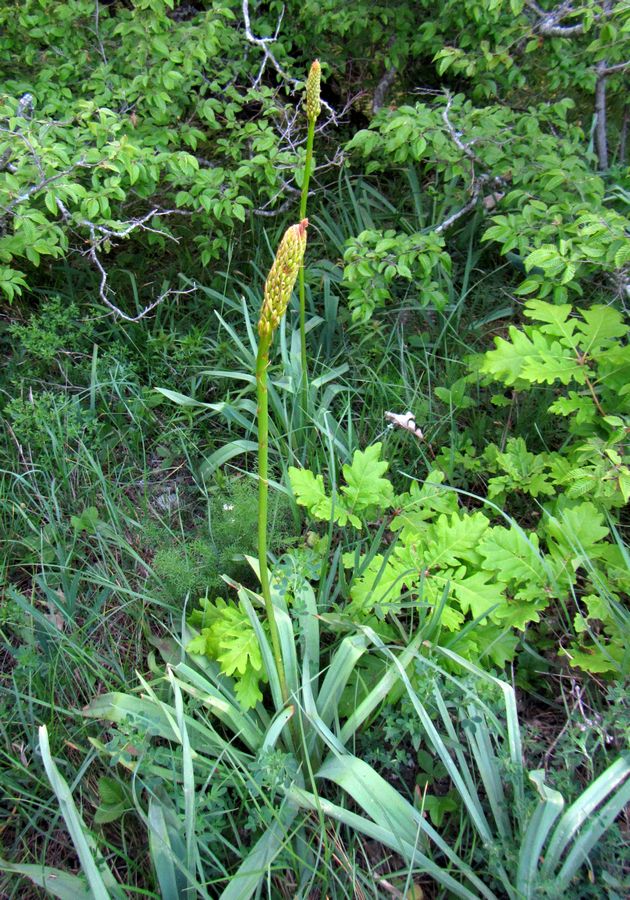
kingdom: Plantae
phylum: Tracheophyta
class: Liliopsida
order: Asparagales
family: Asphodelaceae
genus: Eremurus
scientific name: Eremurus spectabilis
